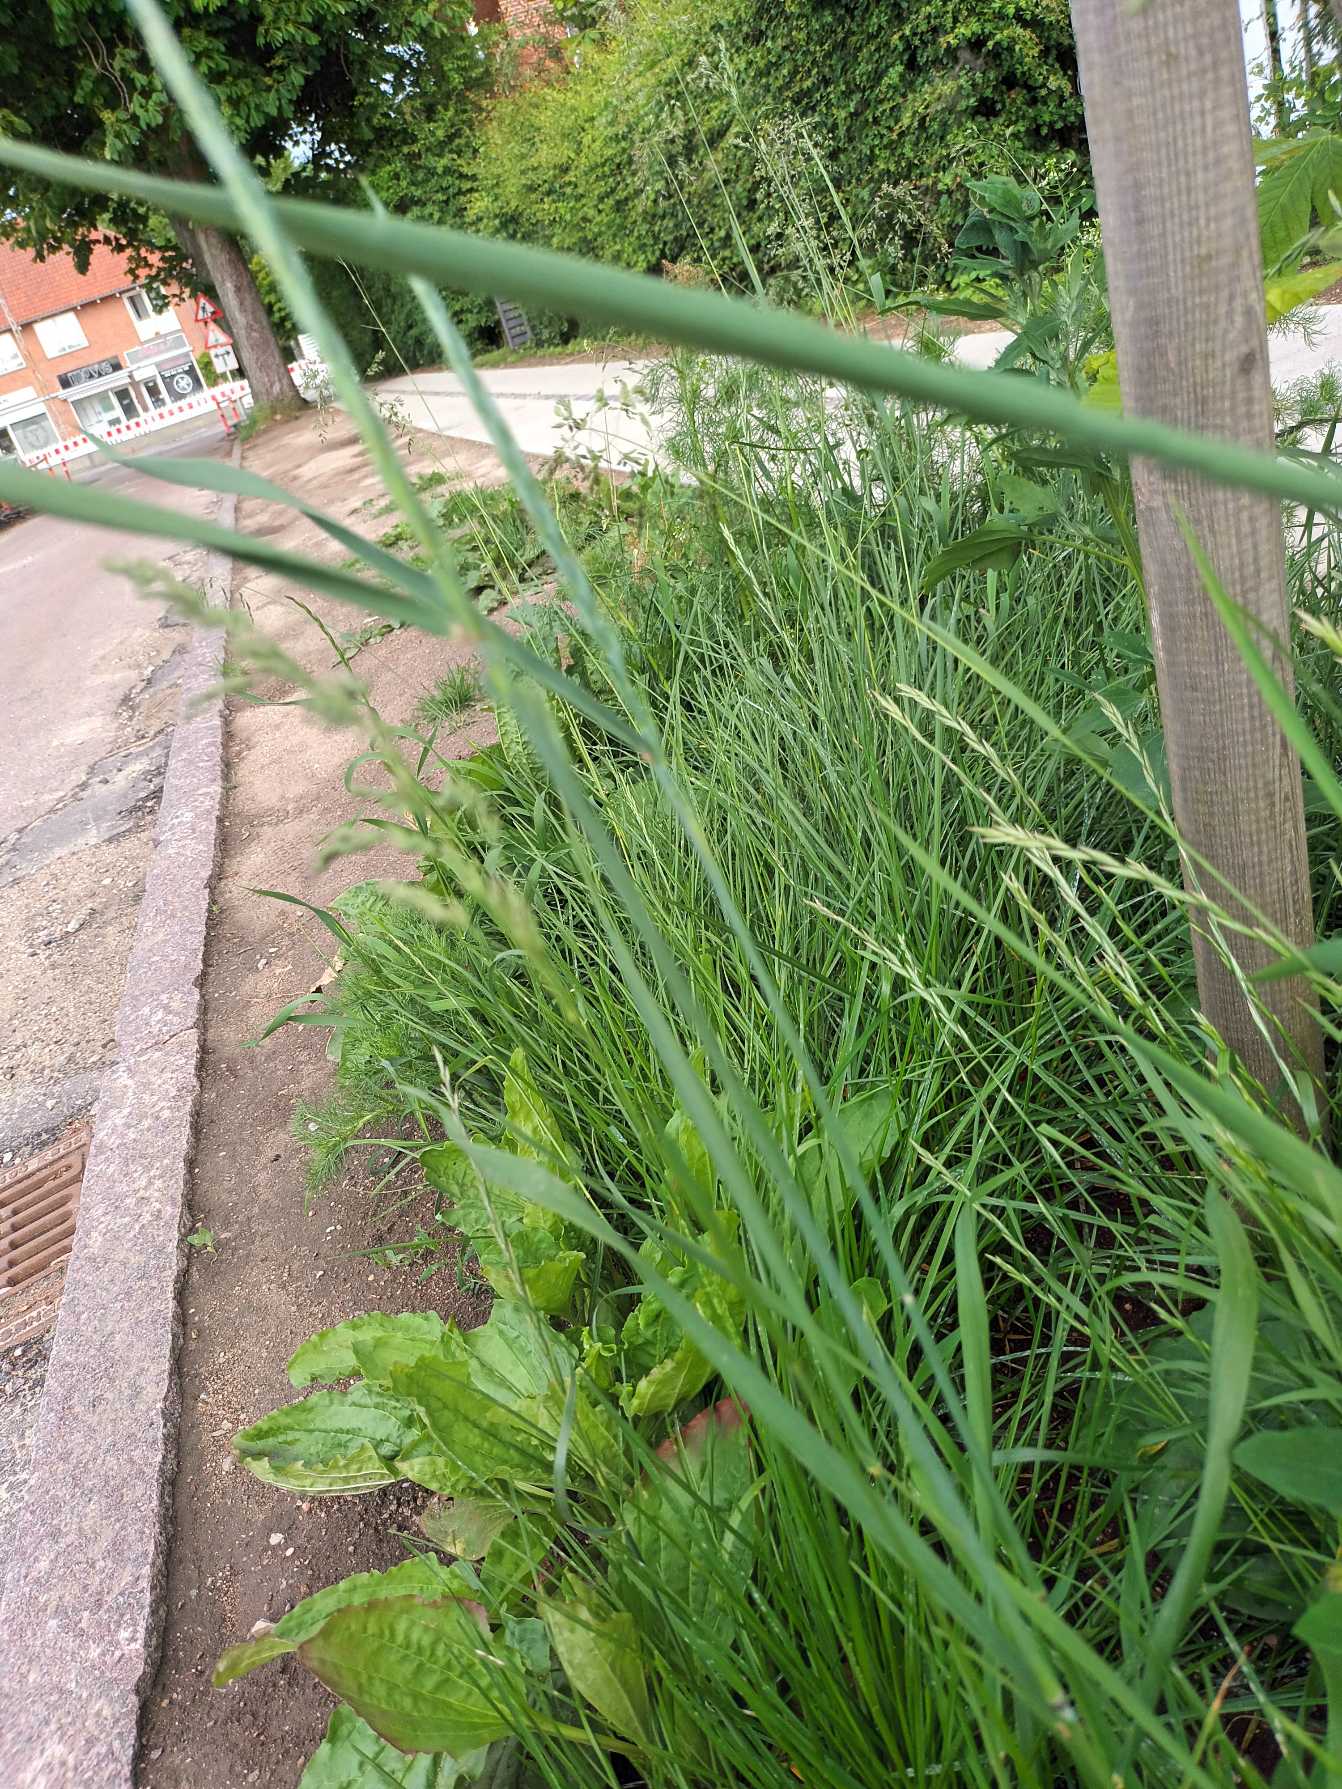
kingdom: Plantae
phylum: Tracheophyta
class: Liliopsida
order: Poales
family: Poaceae
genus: Elymus
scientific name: Elymus repens
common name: Almindelig kvik
